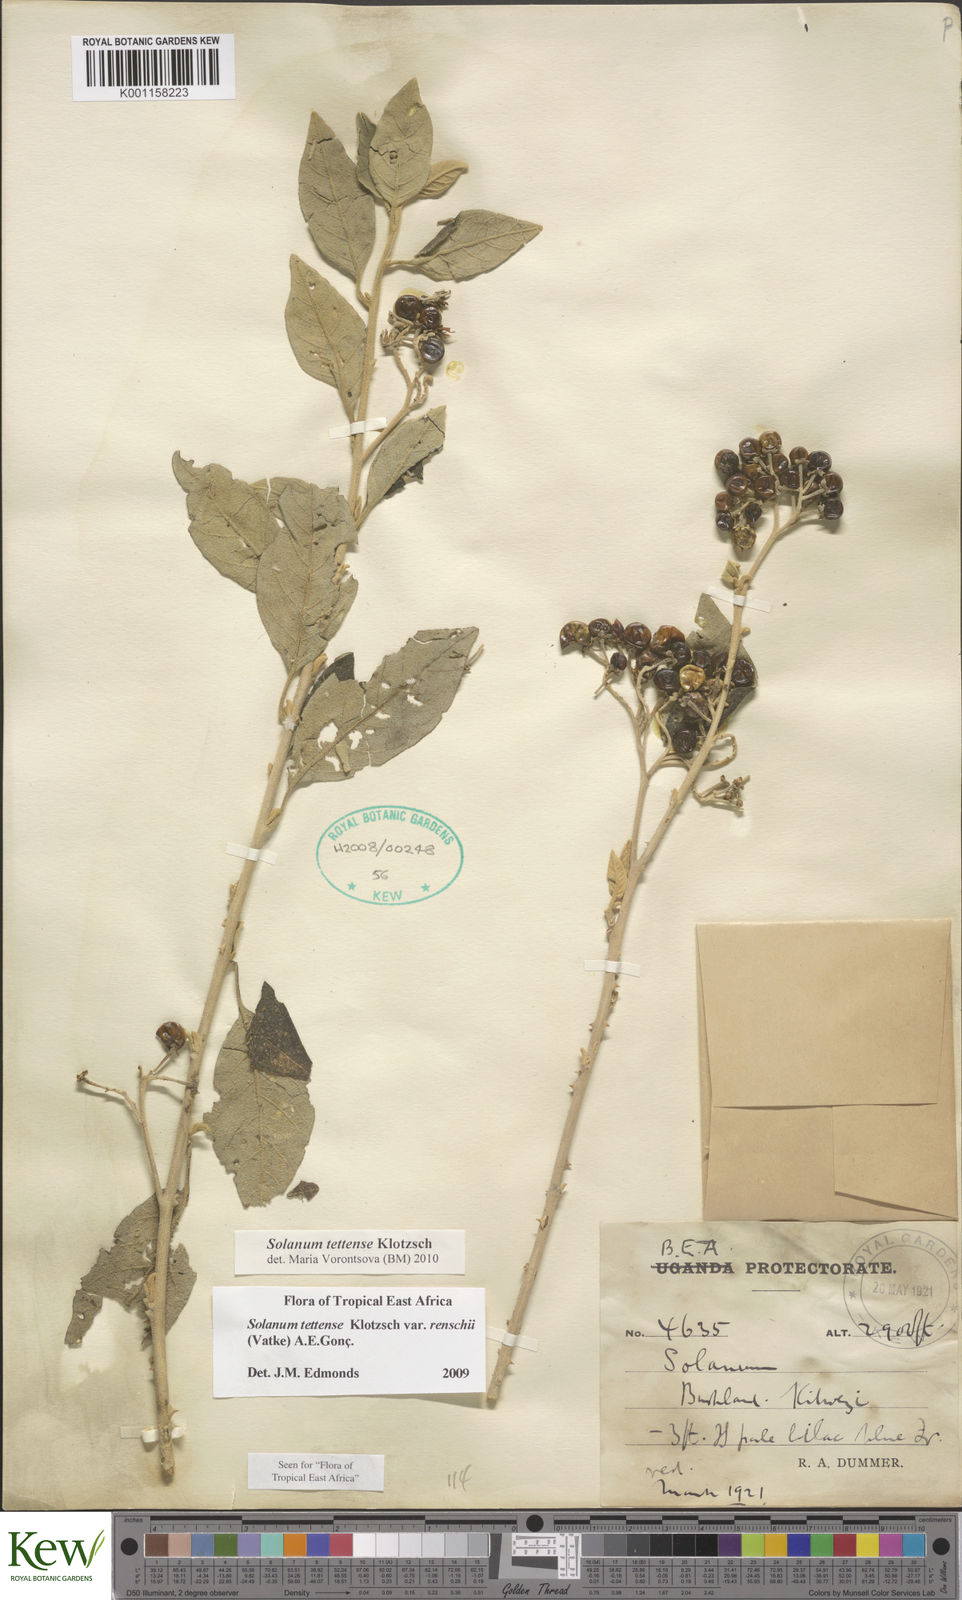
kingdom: Plantae
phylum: Tracheophyta
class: Magnoliopsida
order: Solanales
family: Solanaceae
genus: Solanum
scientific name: Solanum tettense
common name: Mozambique bitter apple
